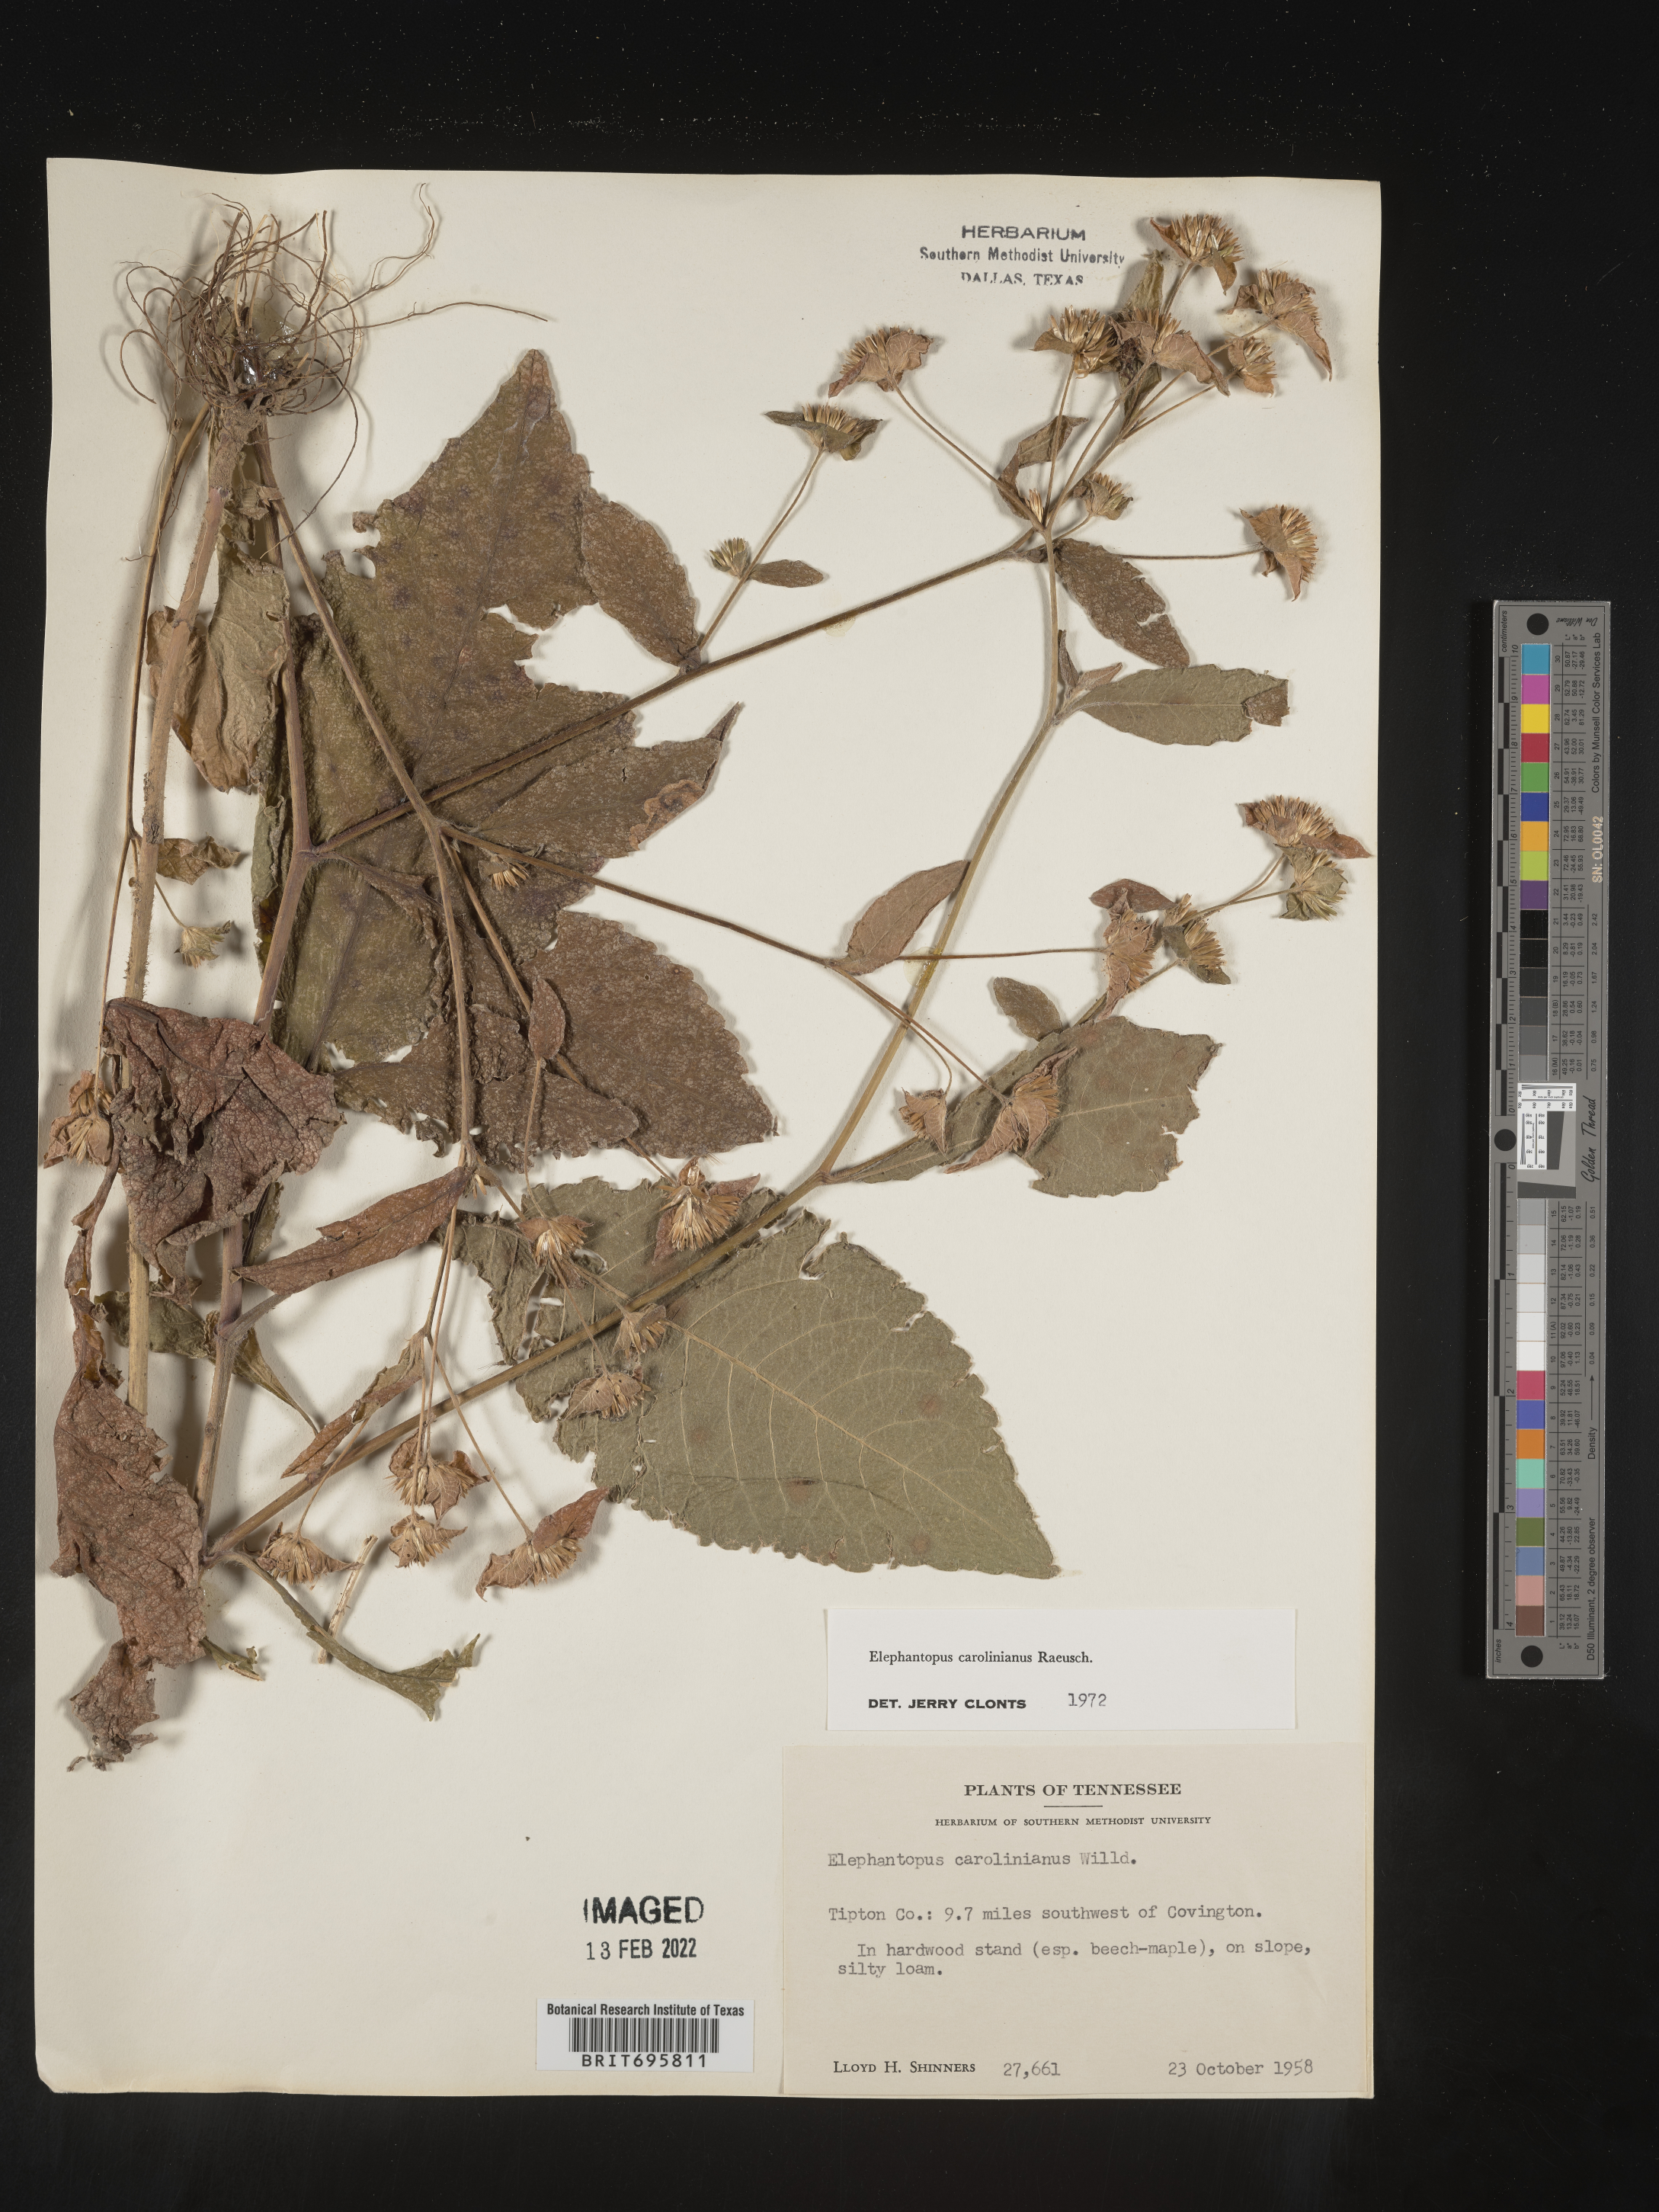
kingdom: Plantae
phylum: Tracheophyta
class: Magnoliopsida
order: Asterales
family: Asteraceae
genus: Elephantopus
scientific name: Elephantopus carolinianus
